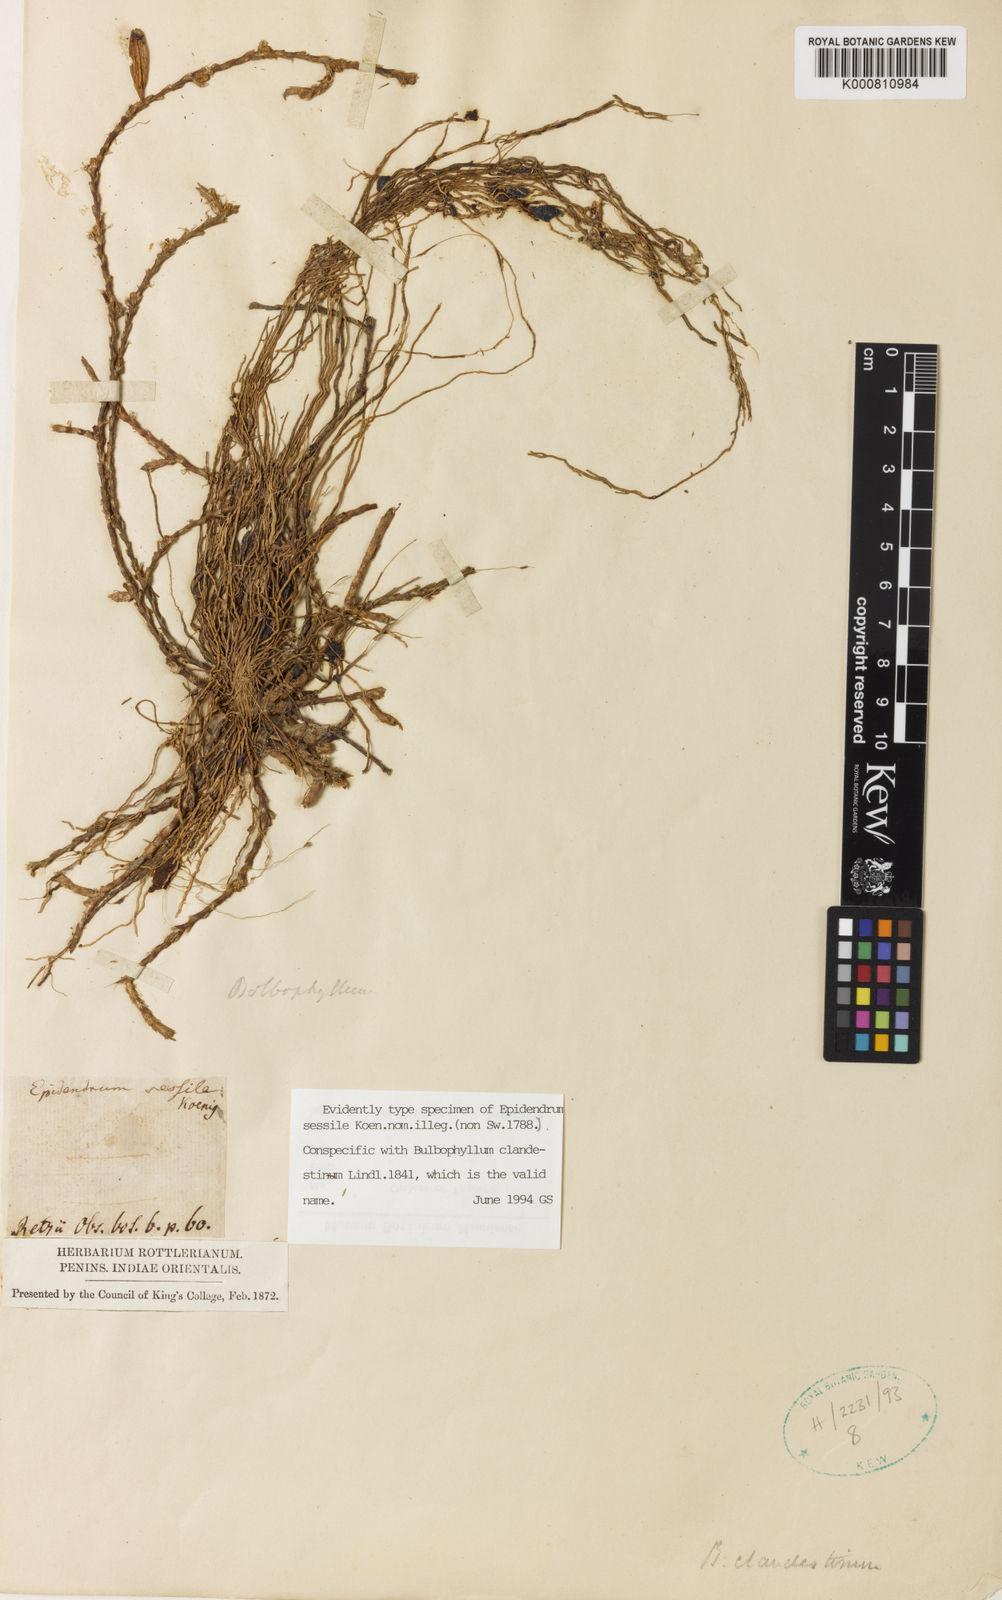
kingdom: Plantae
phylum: Tracheophyta
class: Liliopsida
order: Asparagales
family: Orchidaceae
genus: Bulbophyllum
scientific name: Bulbophyllum clandestinum
